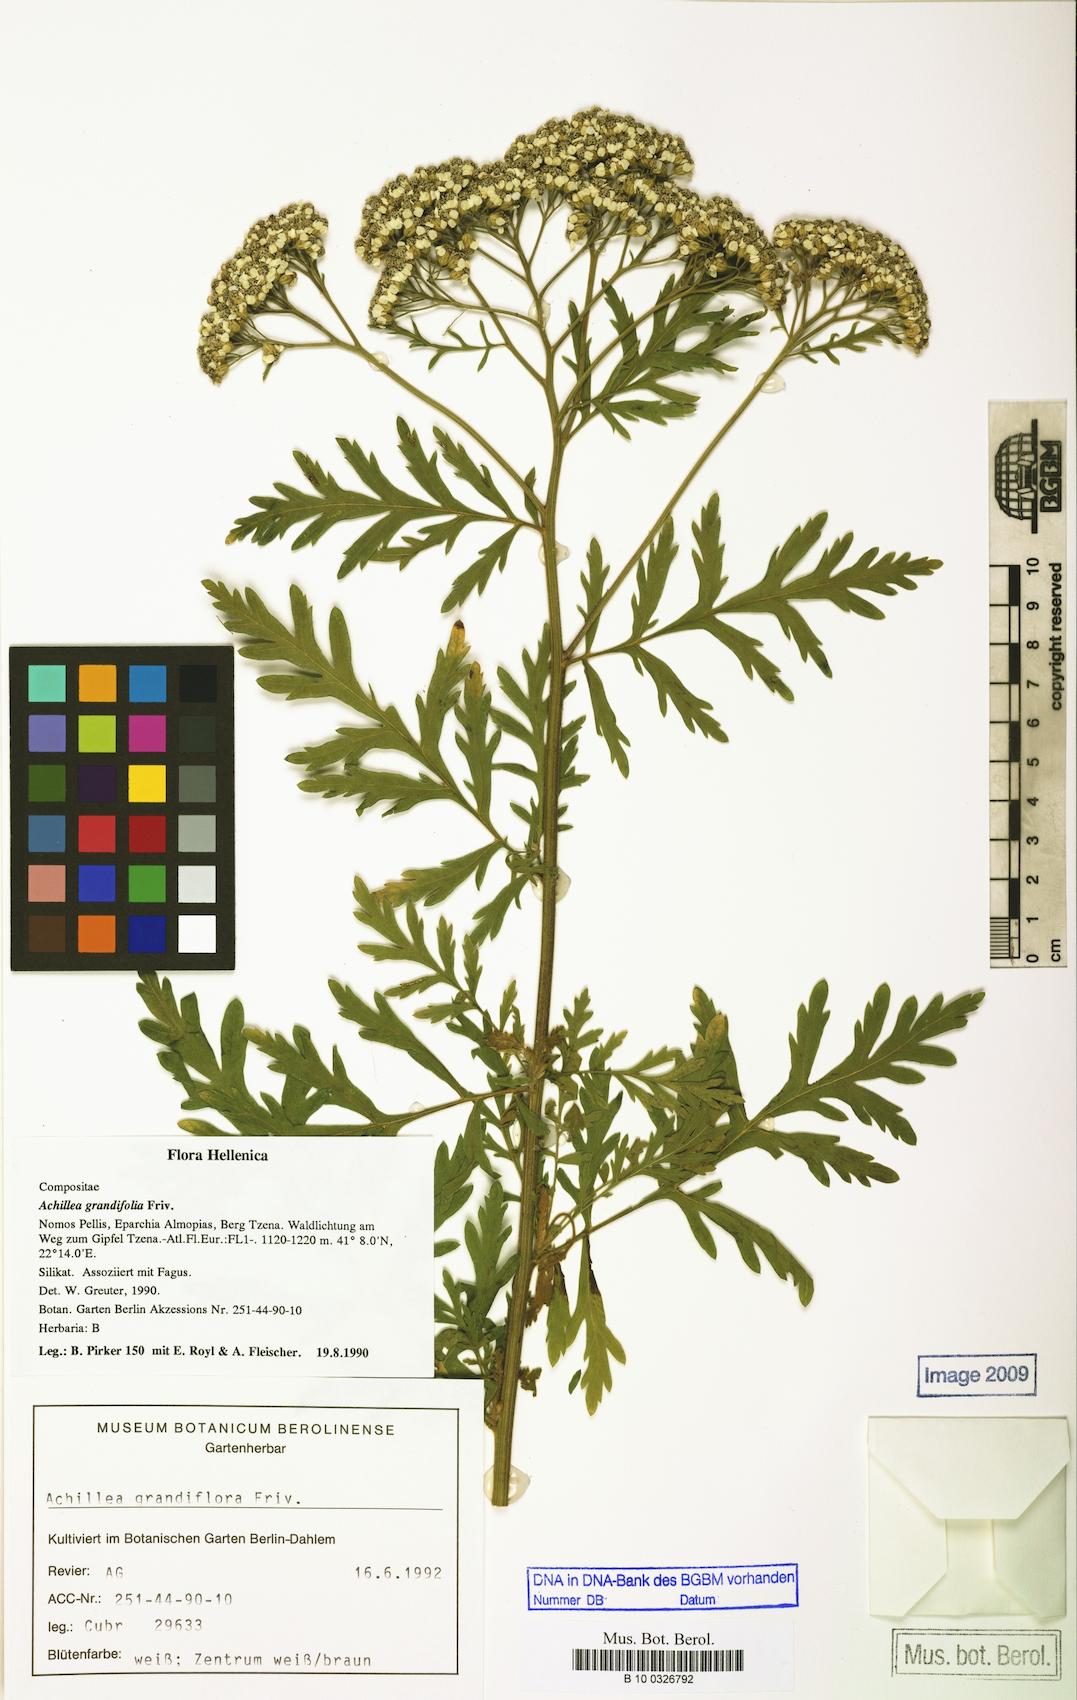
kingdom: Plantae
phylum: Tracheophyta
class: Magnoliopsida
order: Asterales
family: Asteraceae
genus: Achillea
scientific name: Achillea grandifolia
